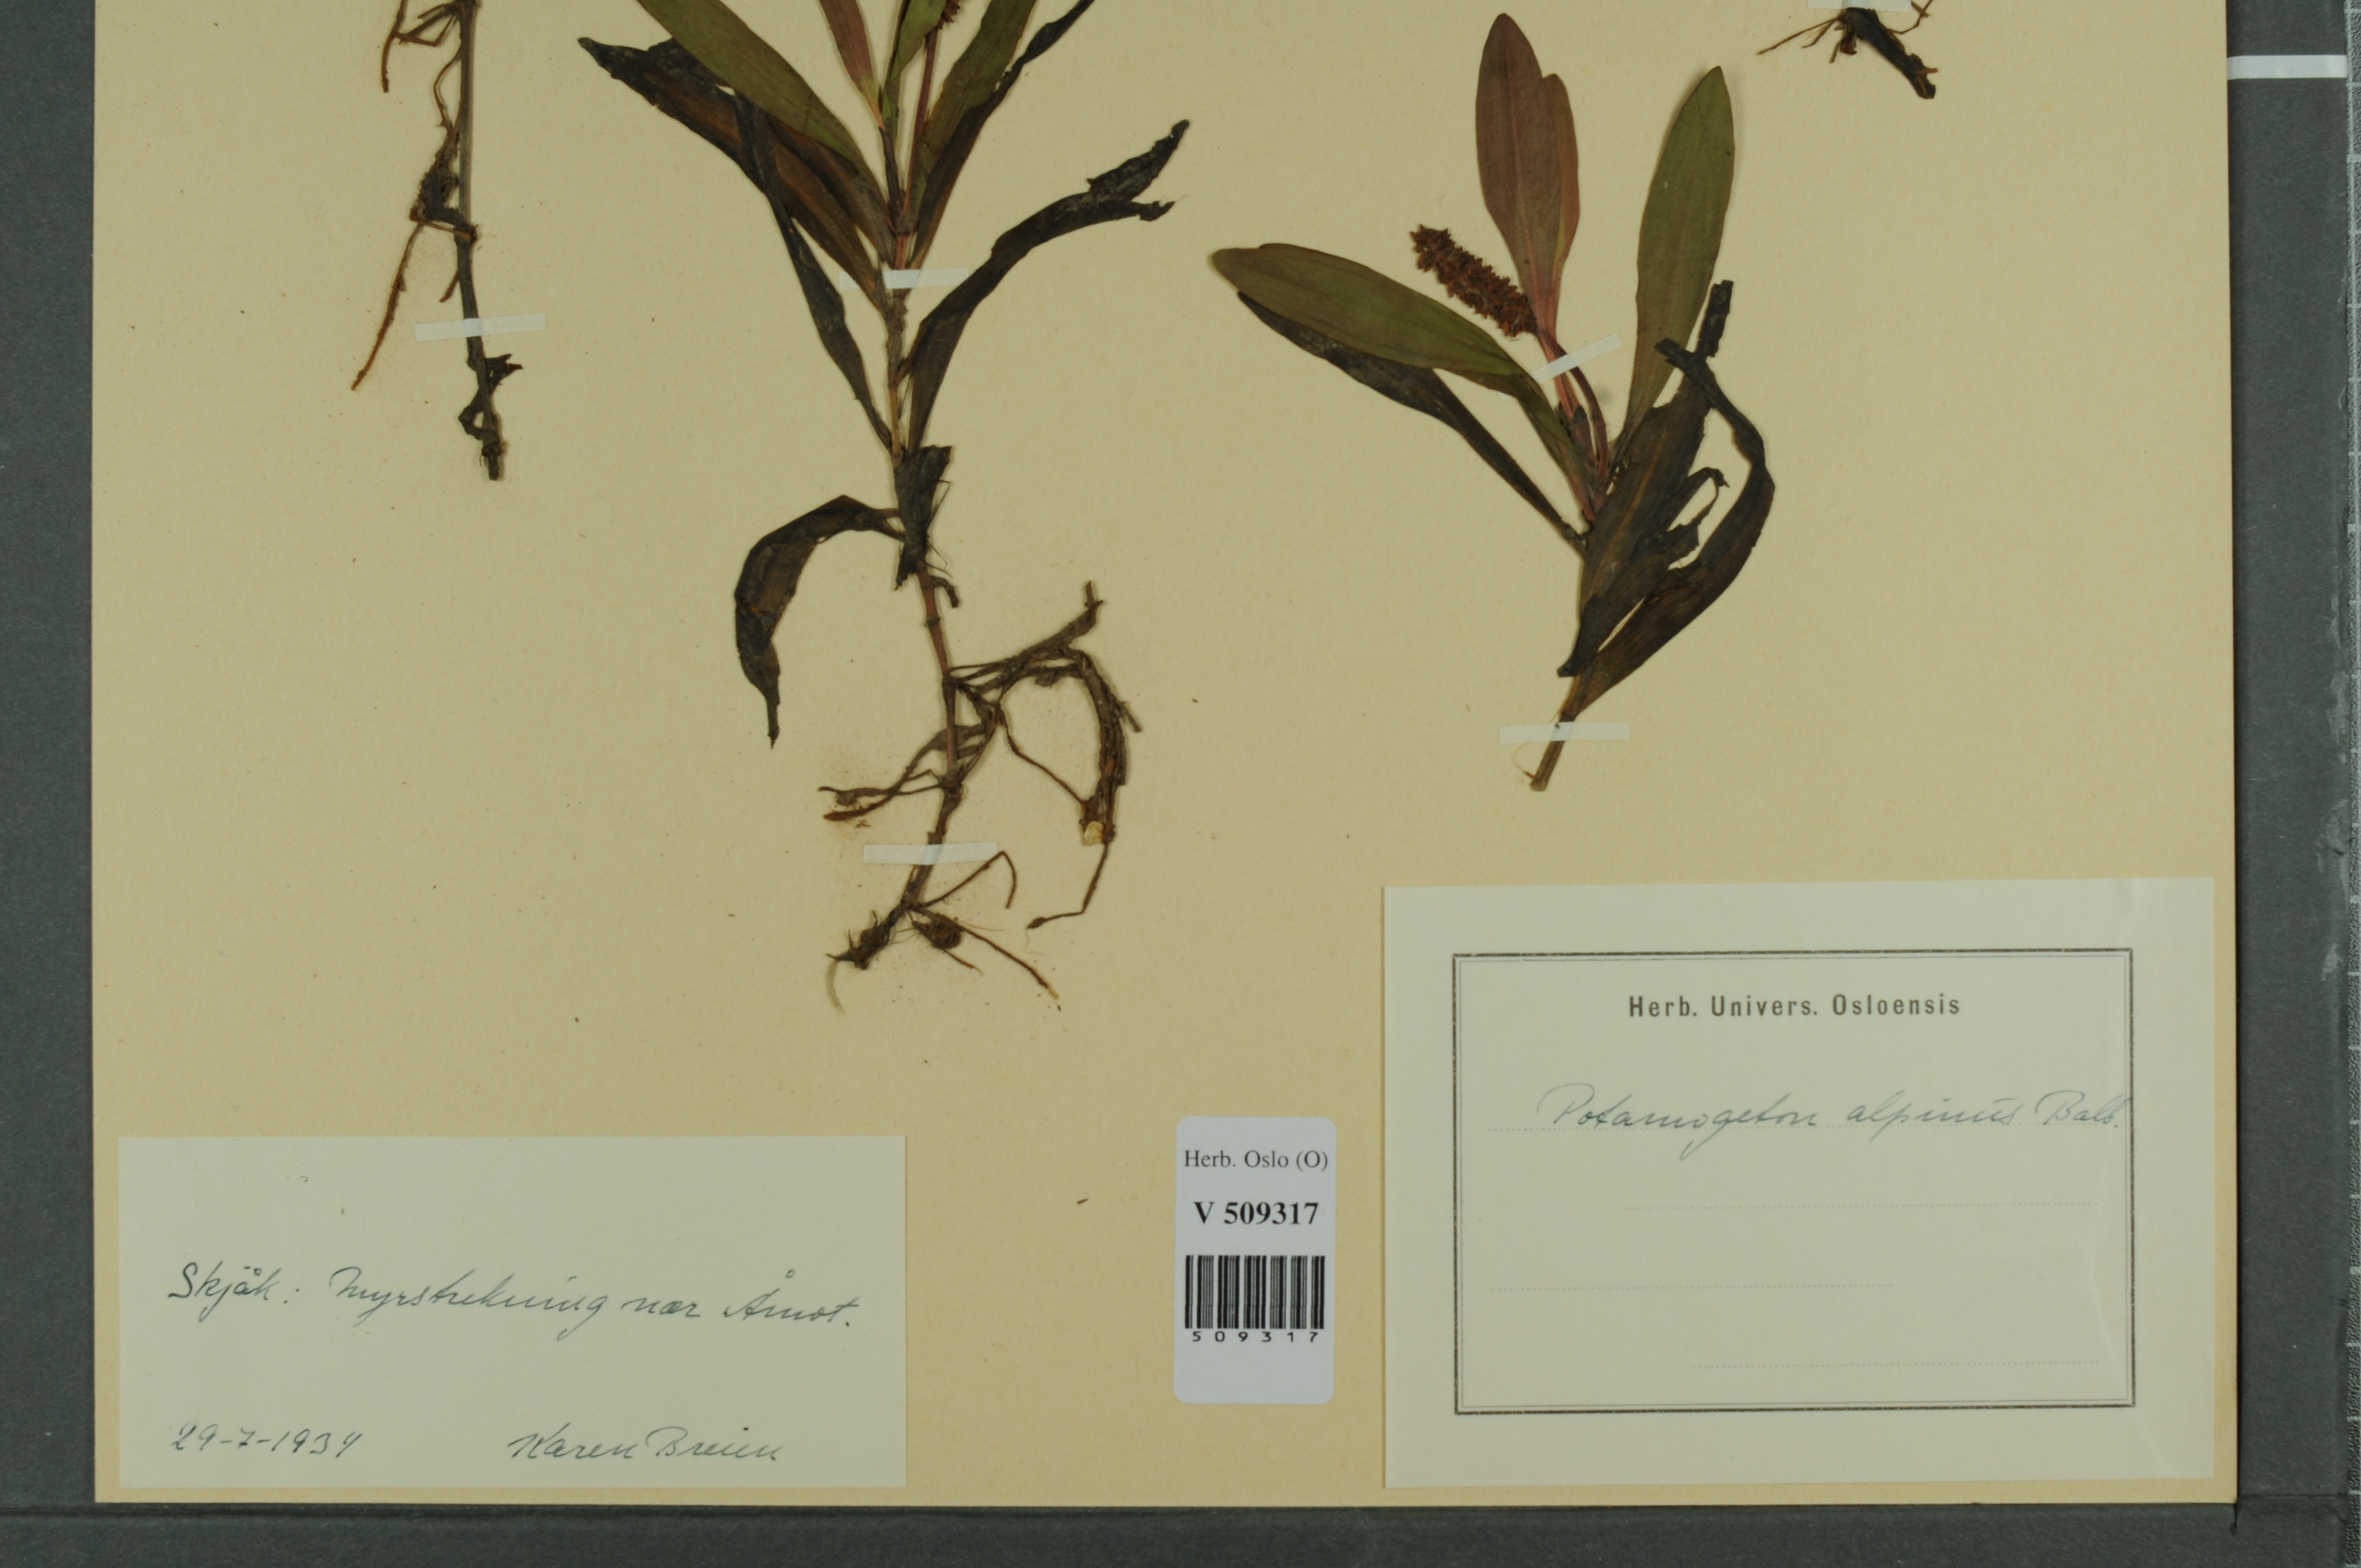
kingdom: Plantae
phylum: Tracheophyta
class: Liliopsida
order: Alismatales
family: Potamogetonaceae
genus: Potamogeton
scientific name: Potamogeton alpinus
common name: Red pondweed
